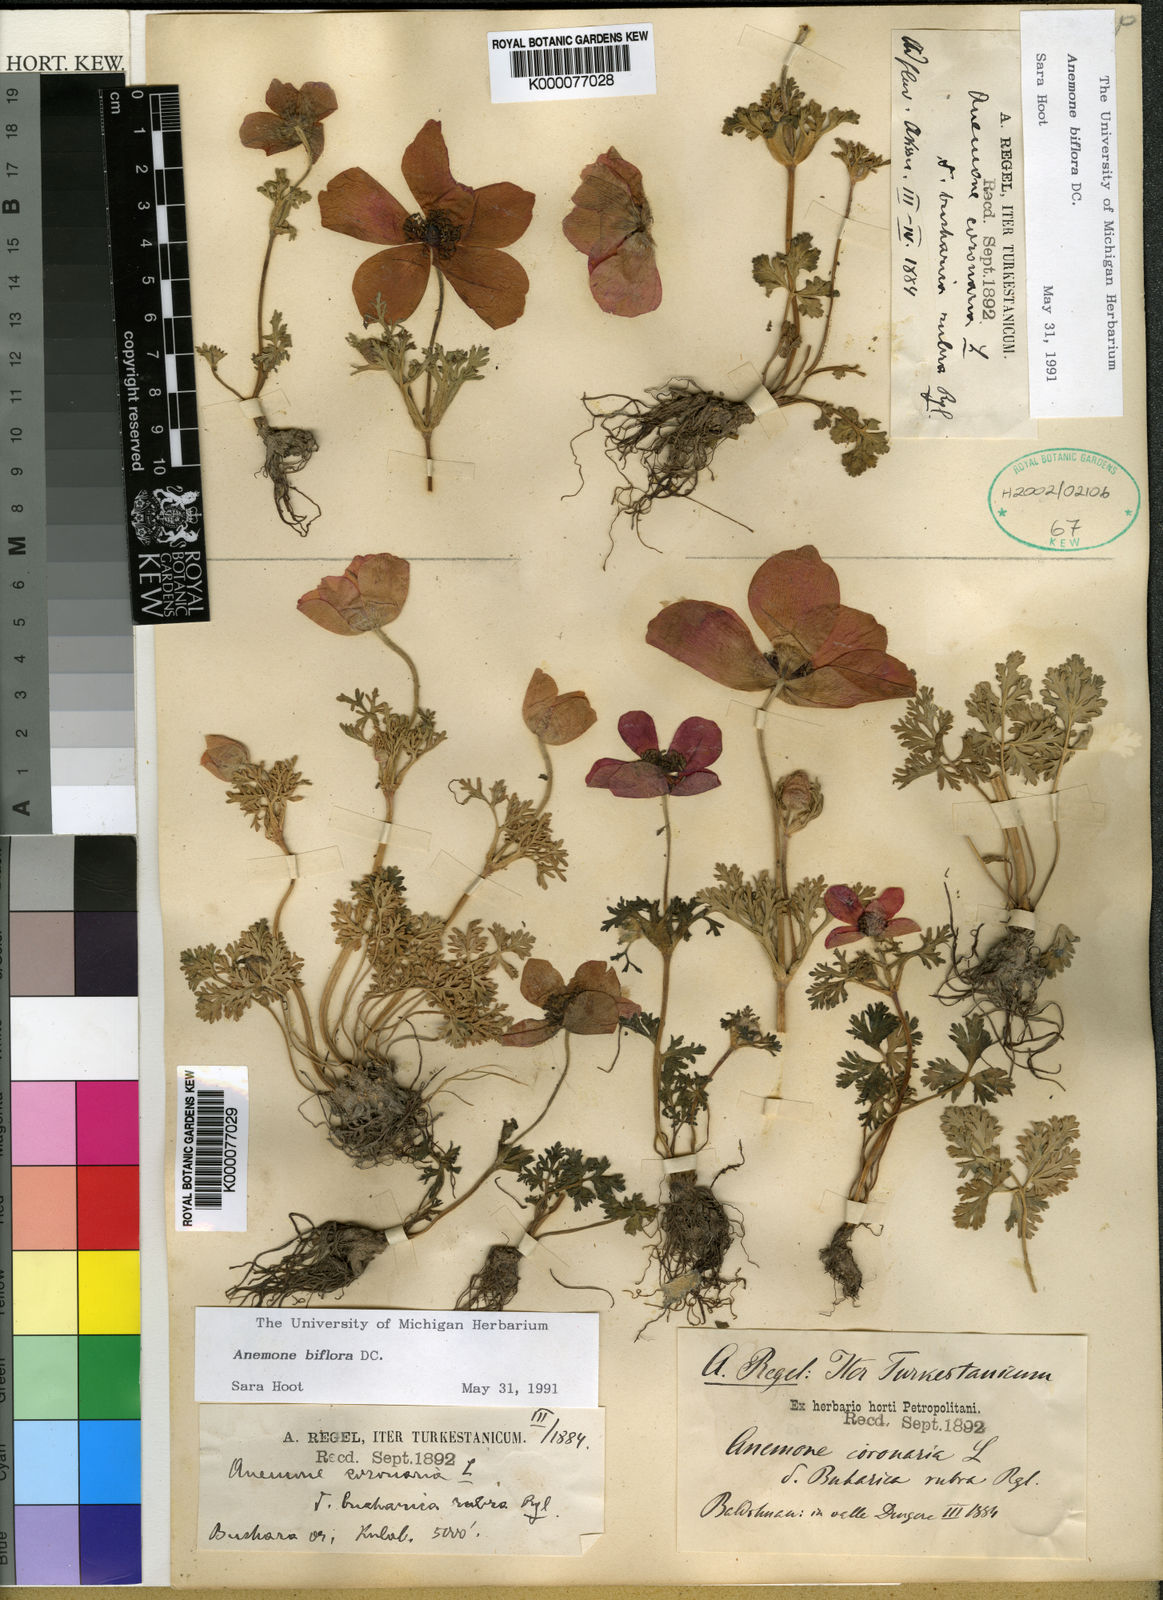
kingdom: Plantae
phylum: Tracheophyta
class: Magnoliopsida
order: Ranunculales
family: Ranunculaceae
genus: Anemone
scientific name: Anemone biflora
